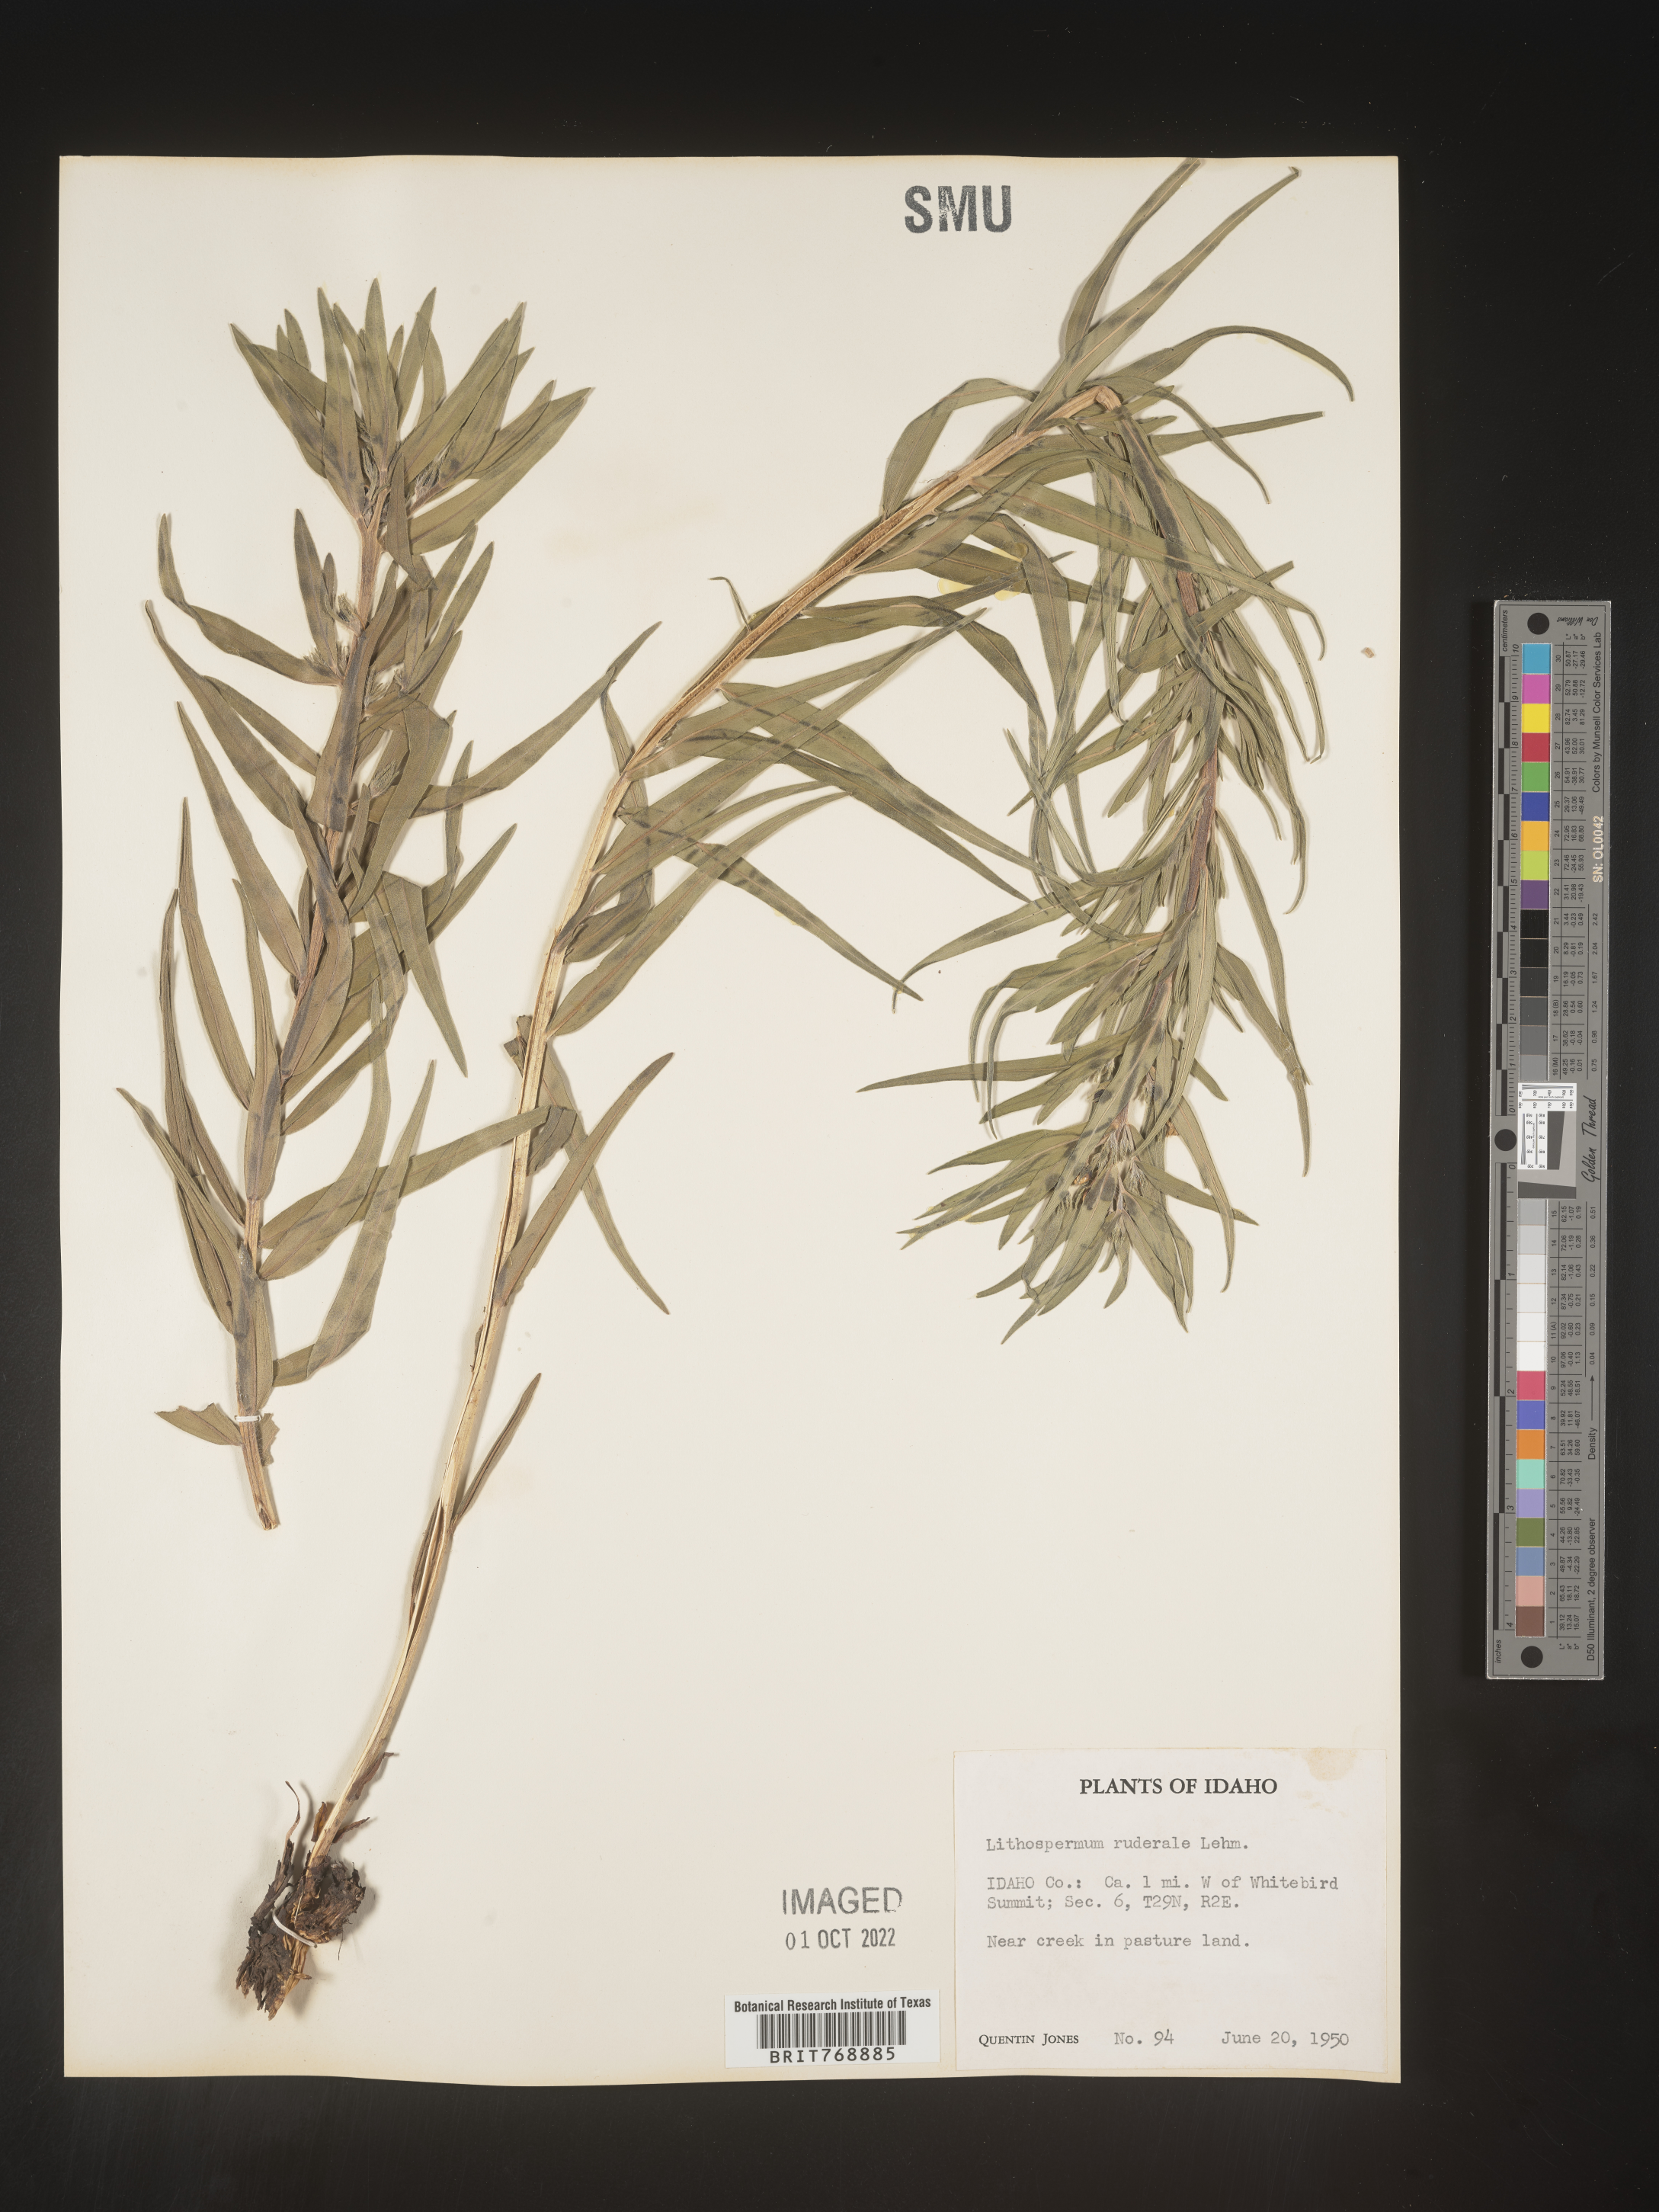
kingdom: Plantae
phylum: Tracheophyta
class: Magnoliopsida
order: Boraginales
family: Boraginaceae
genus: Lithospermum
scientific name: Lithospermum
